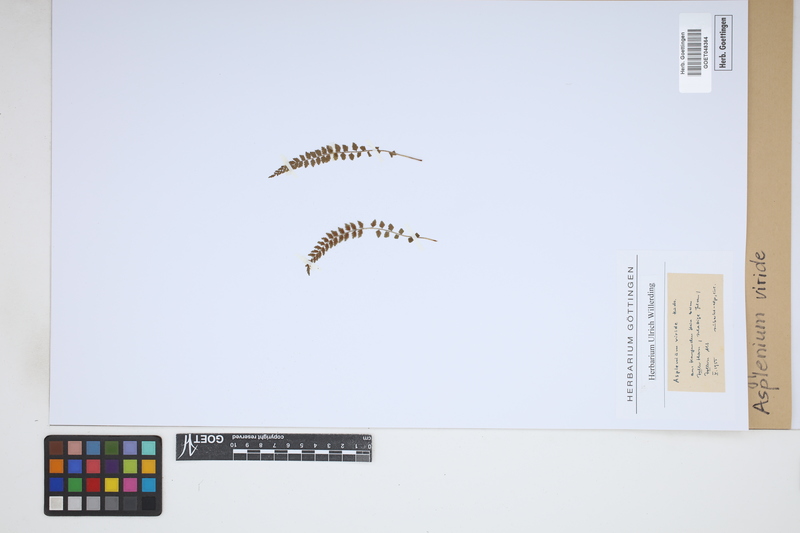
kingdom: Plantae
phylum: Tracheophyta
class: Polypodiopsida
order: Polypodiales
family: Aspleniaceae
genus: Asplenium
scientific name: Asplenium viride
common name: Green spleenwort
